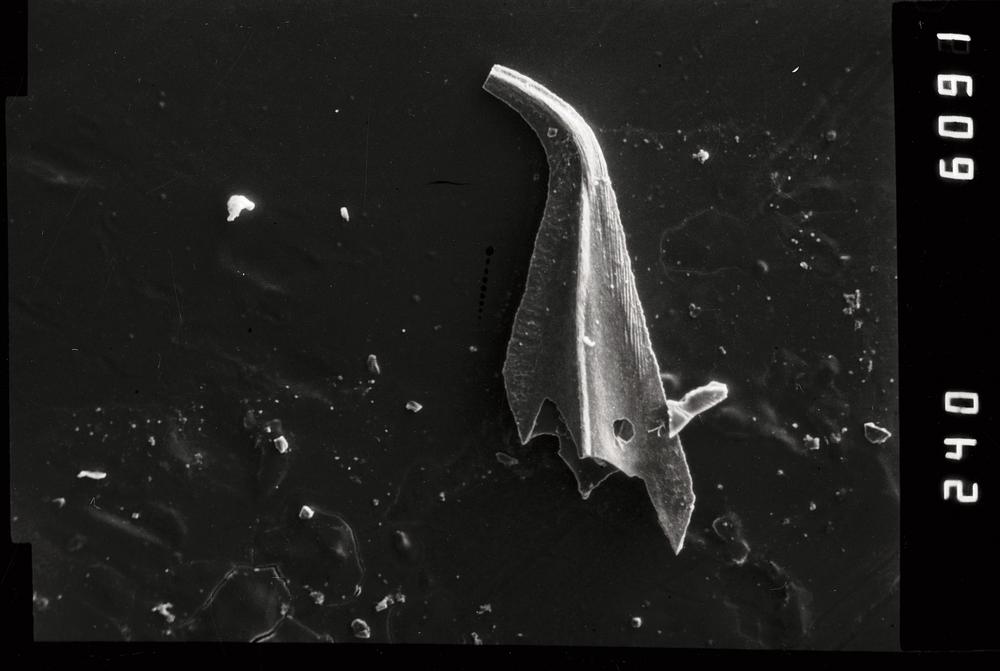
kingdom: Animalia
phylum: Chordata
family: Belodellidae
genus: Stolodus
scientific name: Stolodus Distacodus stola
